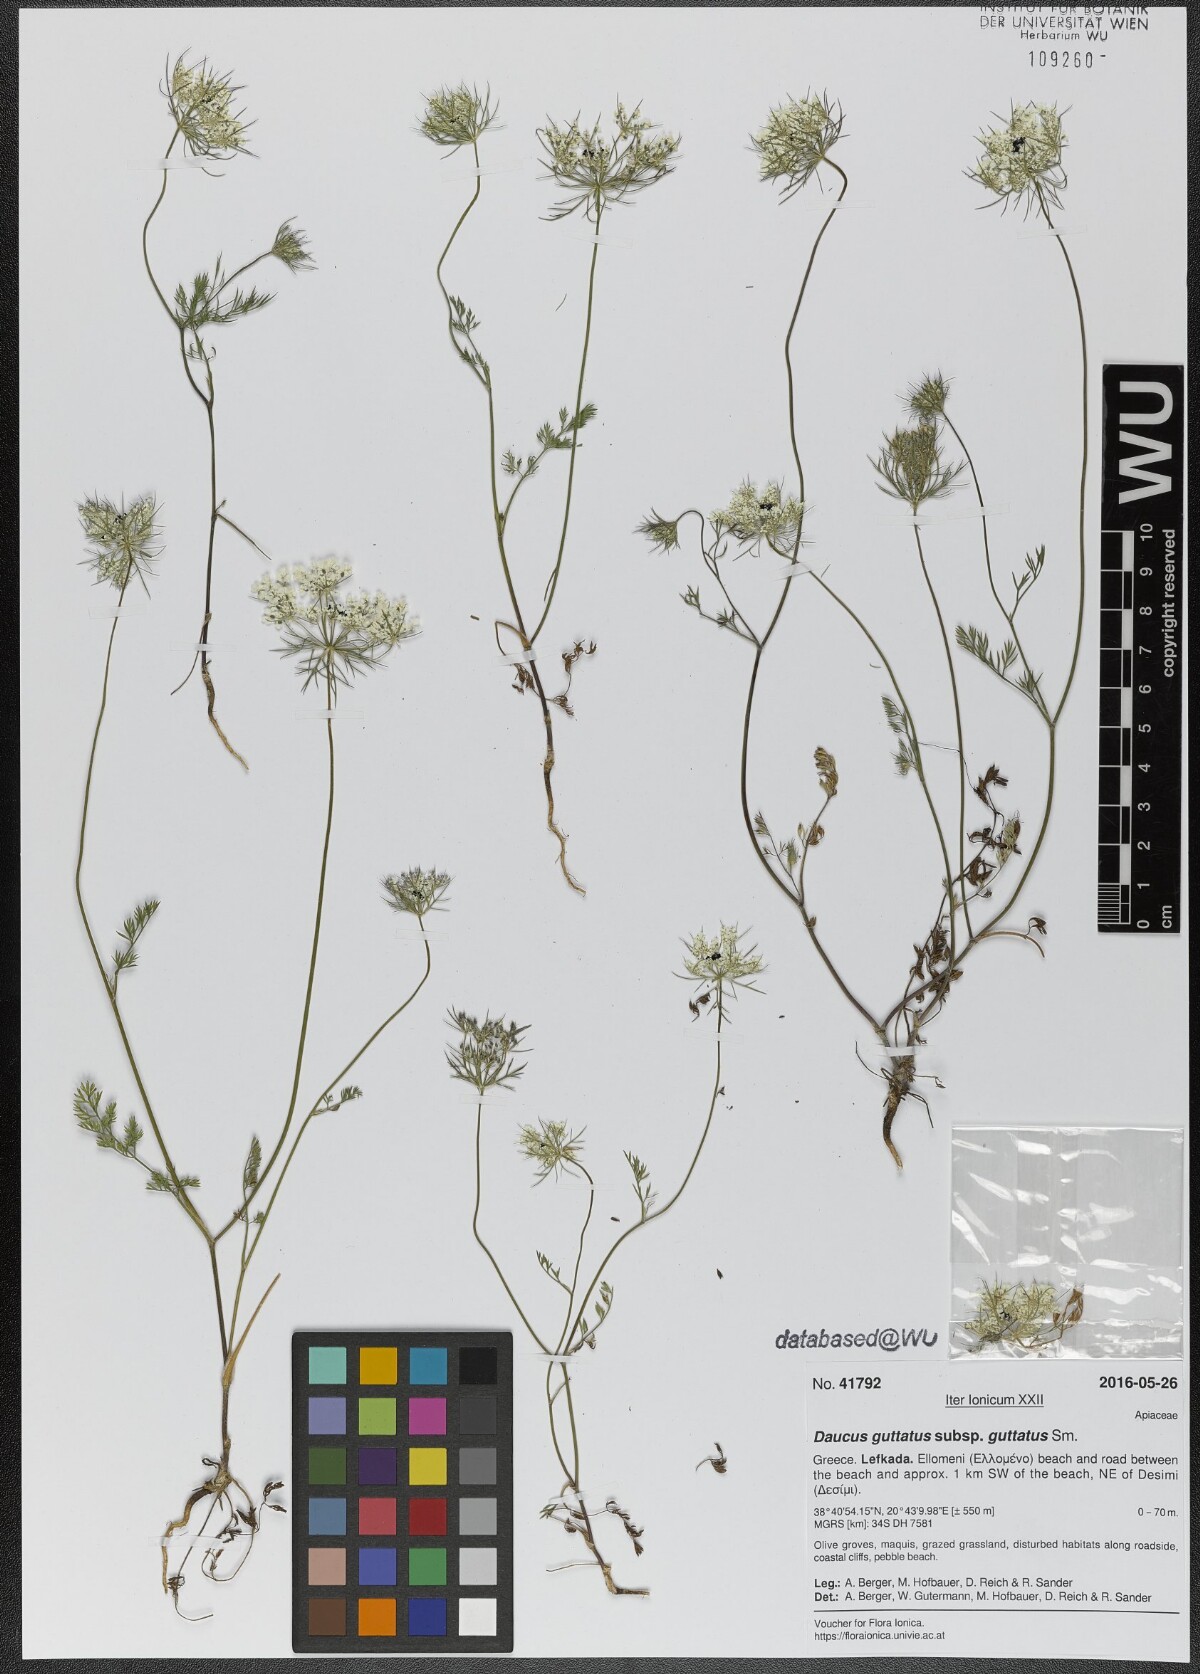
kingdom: Plantae
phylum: Tracheophyta
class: Magnoliopsida
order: Apiales
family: Apiaceae
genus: Daucus
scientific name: Daucus guttatus
